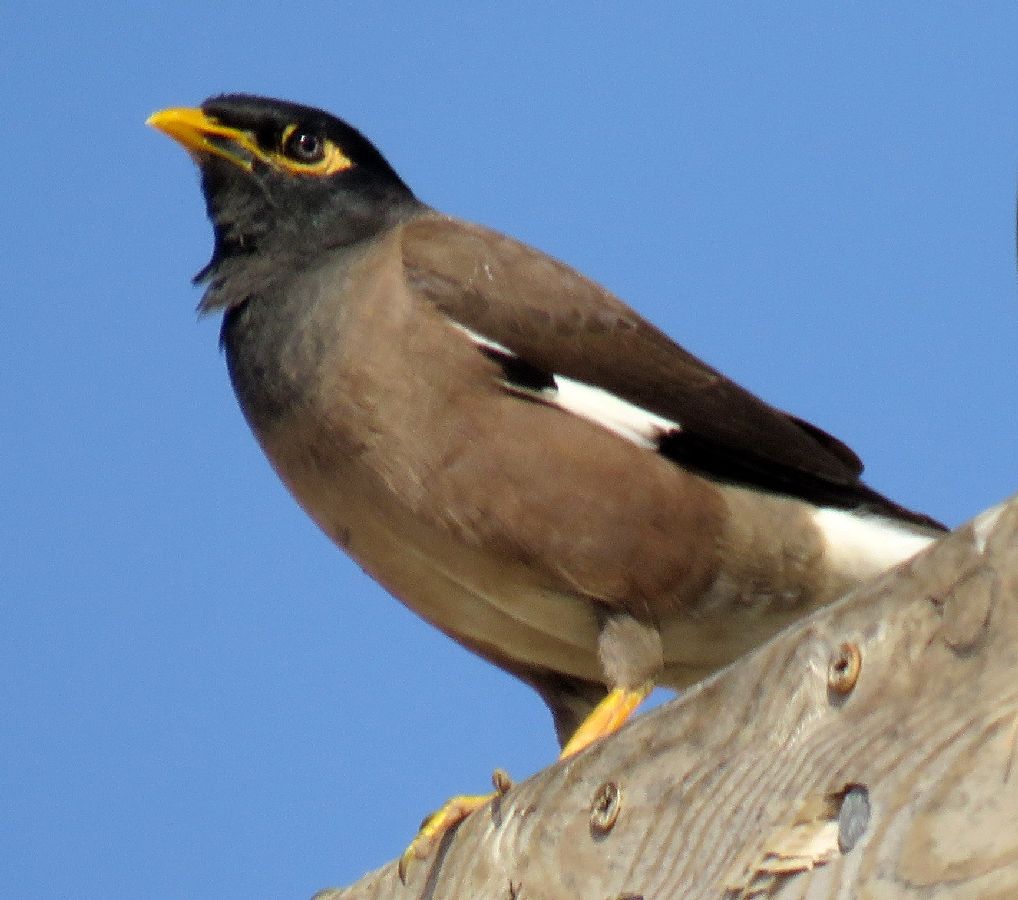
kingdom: Animalia
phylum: Chordata
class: Aves
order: Passeriformes
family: Sturnidae
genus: Acridotheres
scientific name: Acridotheres tristis
